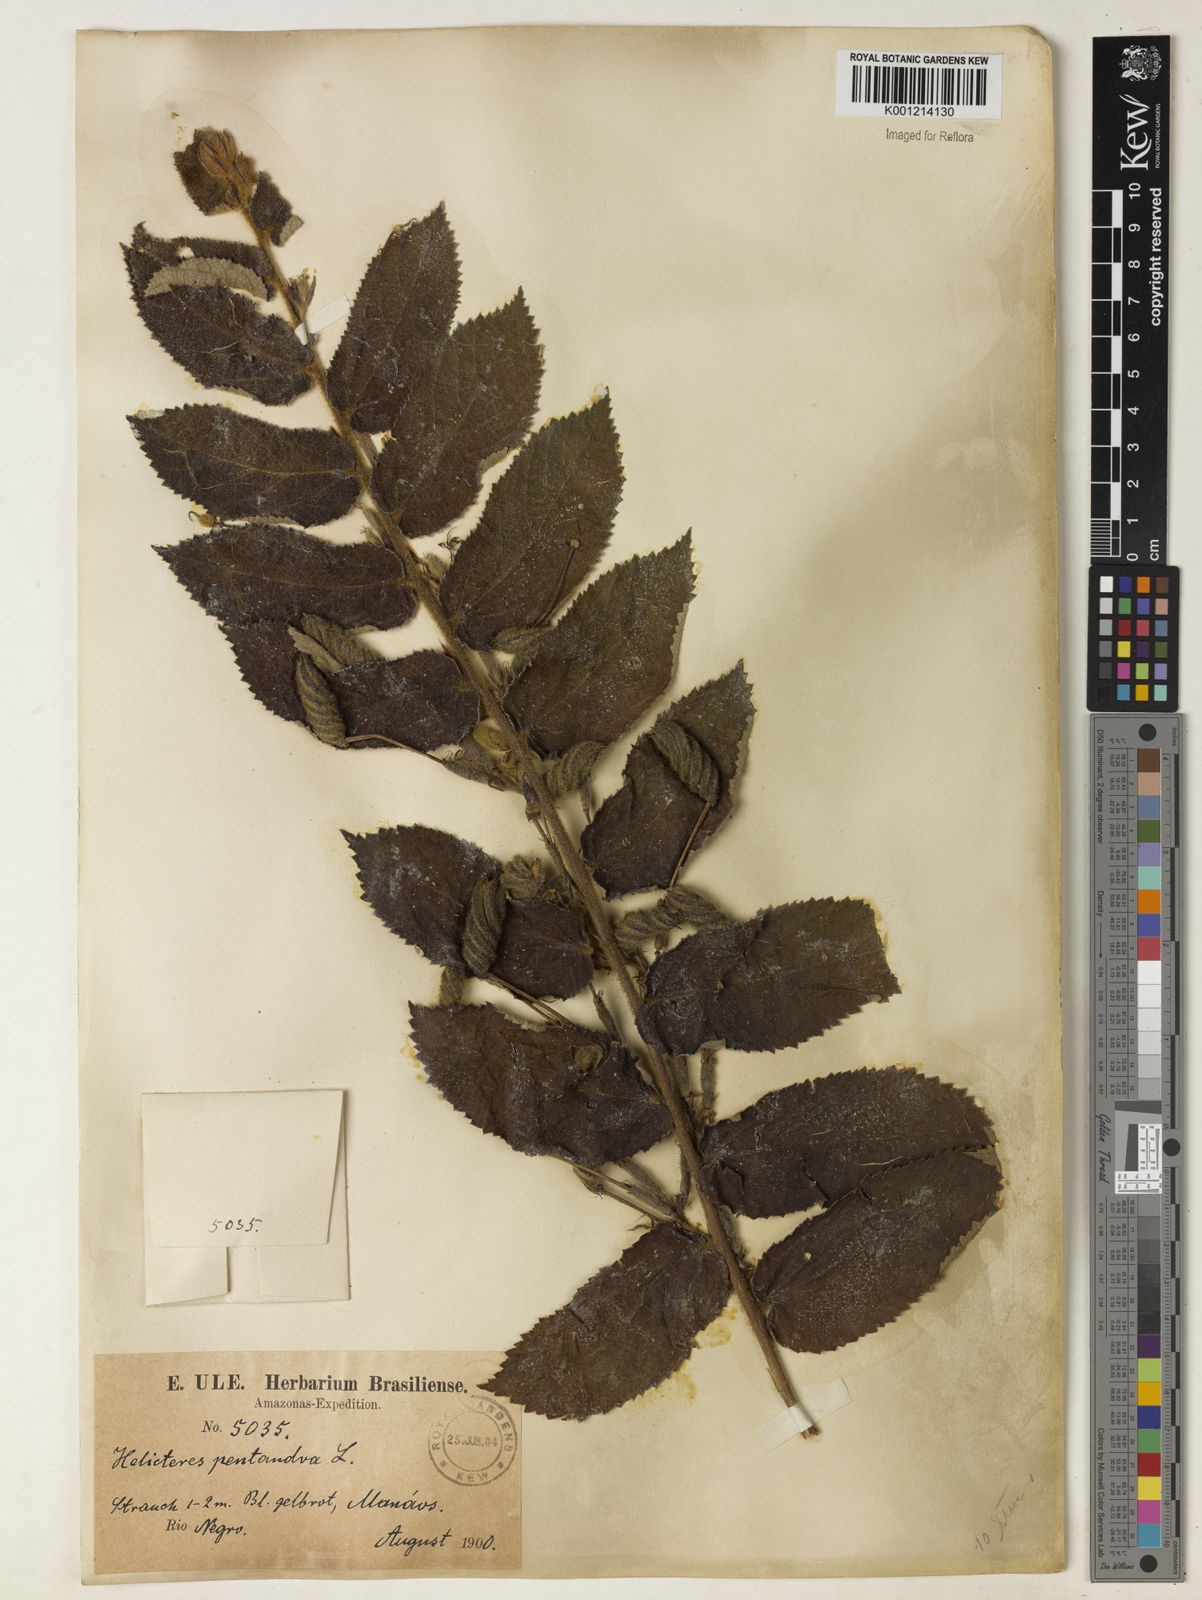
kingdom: Plantae
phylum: Tracheophyta
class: Magnoliopsida
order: Malvales
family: Malvaceae
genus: Helicteres
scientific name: Helicteres pentandra
